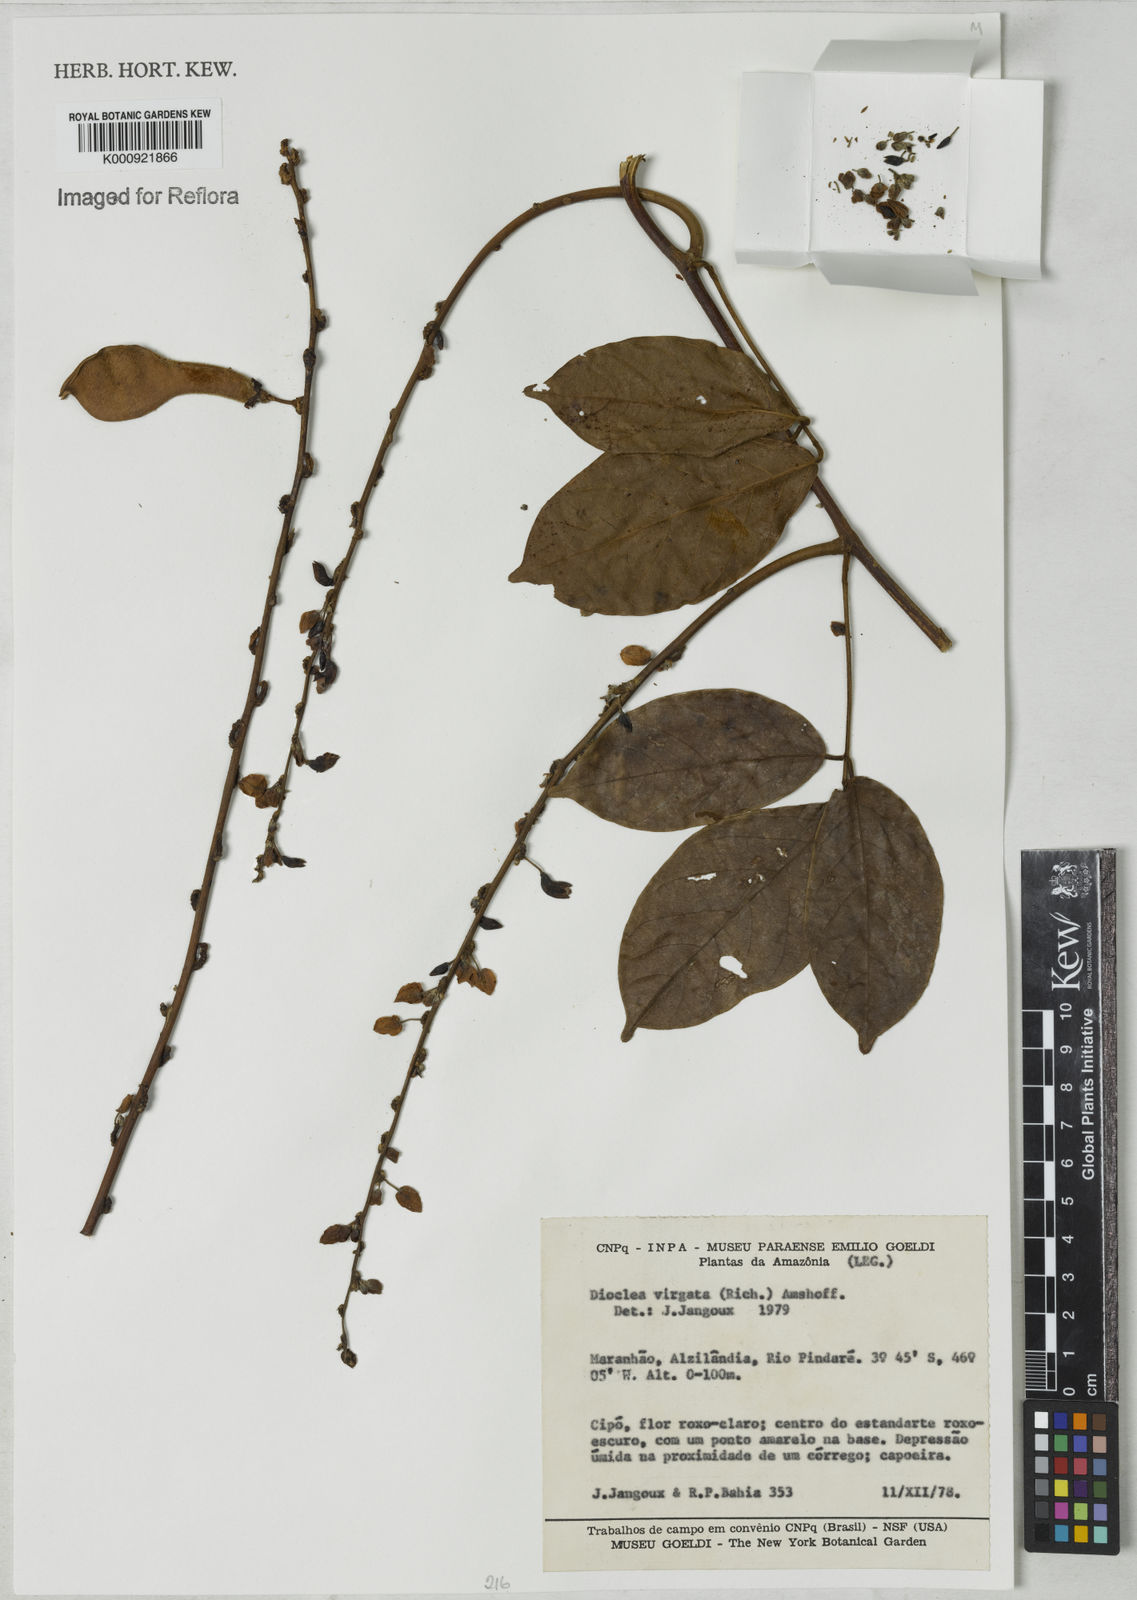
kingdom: Plantae
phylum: Tracheophyta
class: Magnoliopsida
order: Fabales
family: Fabaceae
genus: Dioclea
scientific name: Dioclea virgata
